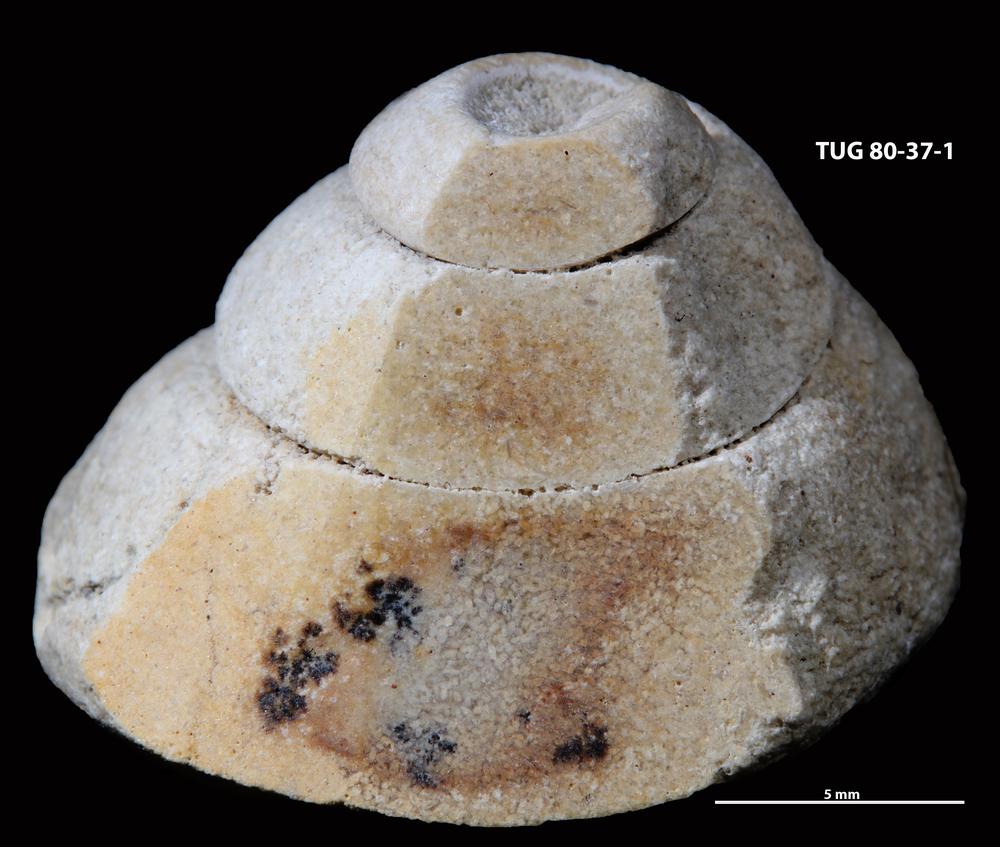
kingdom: Animalia
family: Coprulidae
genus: Coprulus
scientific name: Coprulus
